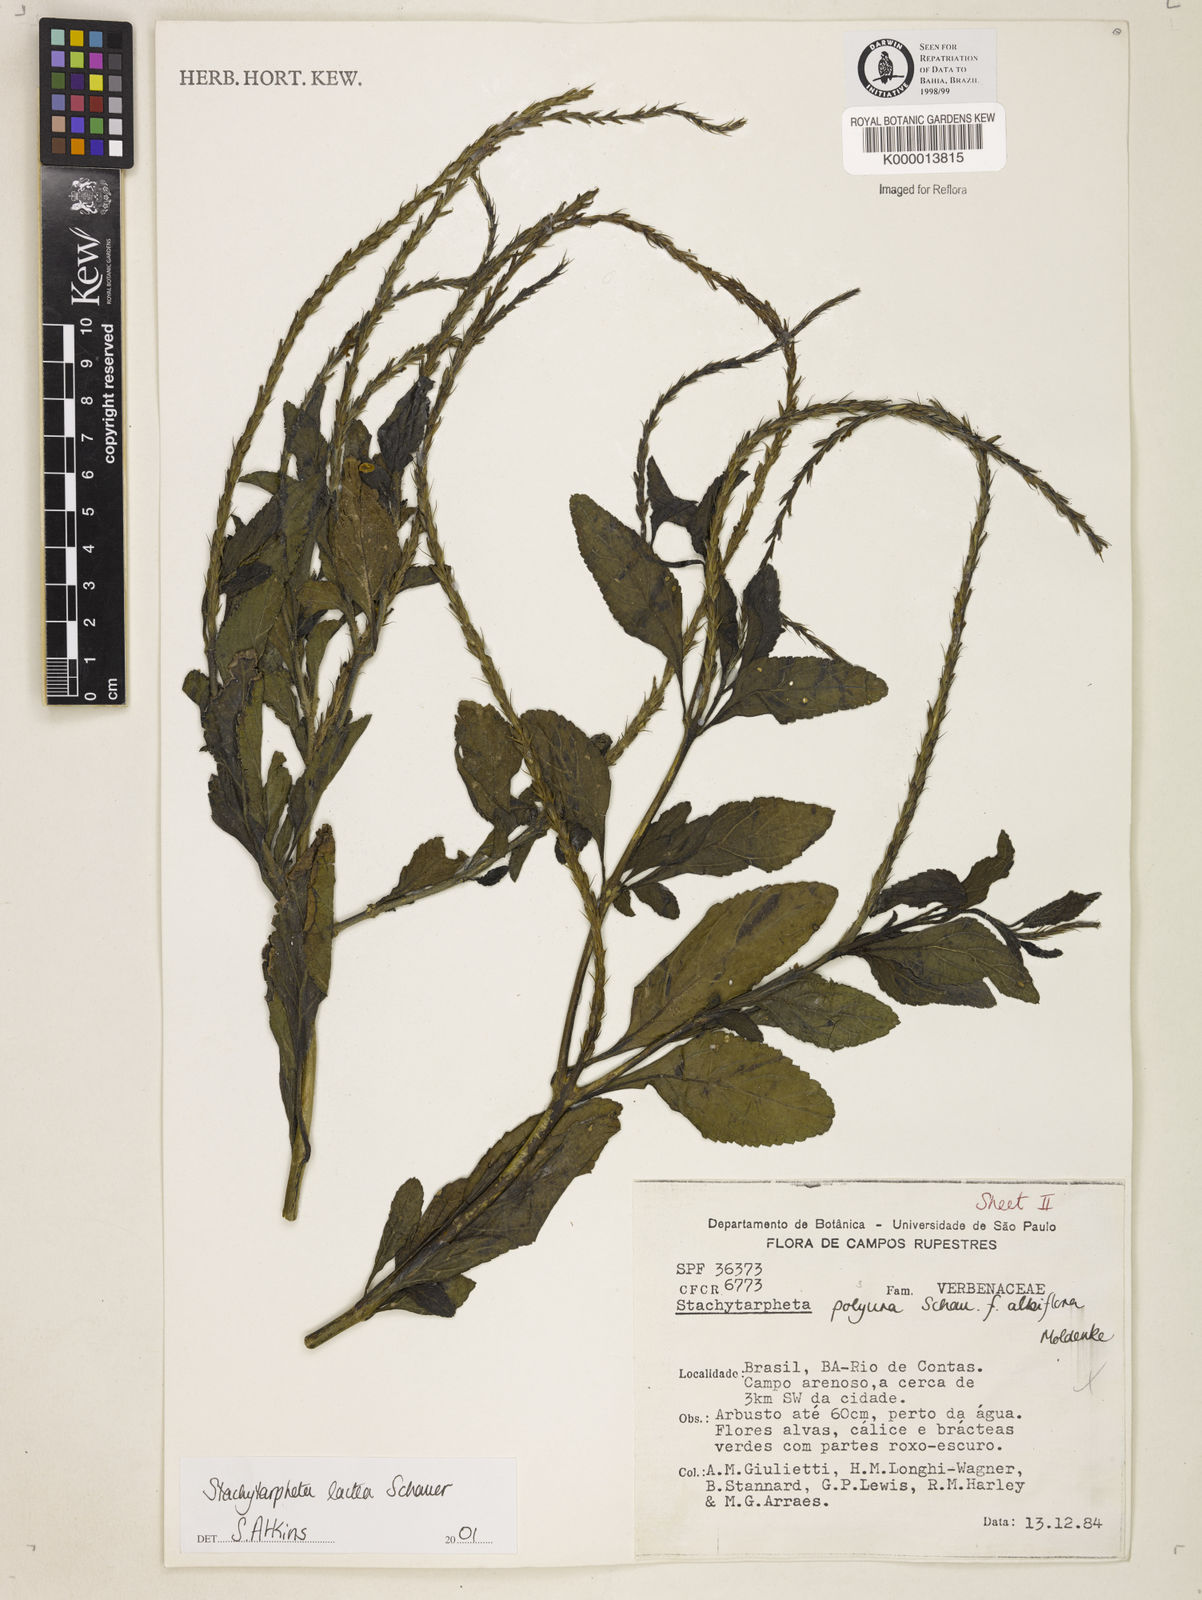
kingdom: Plantae
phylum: Tracheophyta
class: Magnoliopsida
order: Lamiales
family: Verbenaceae
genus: Stachytarpheta
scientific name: Stachytarpheta polyura
